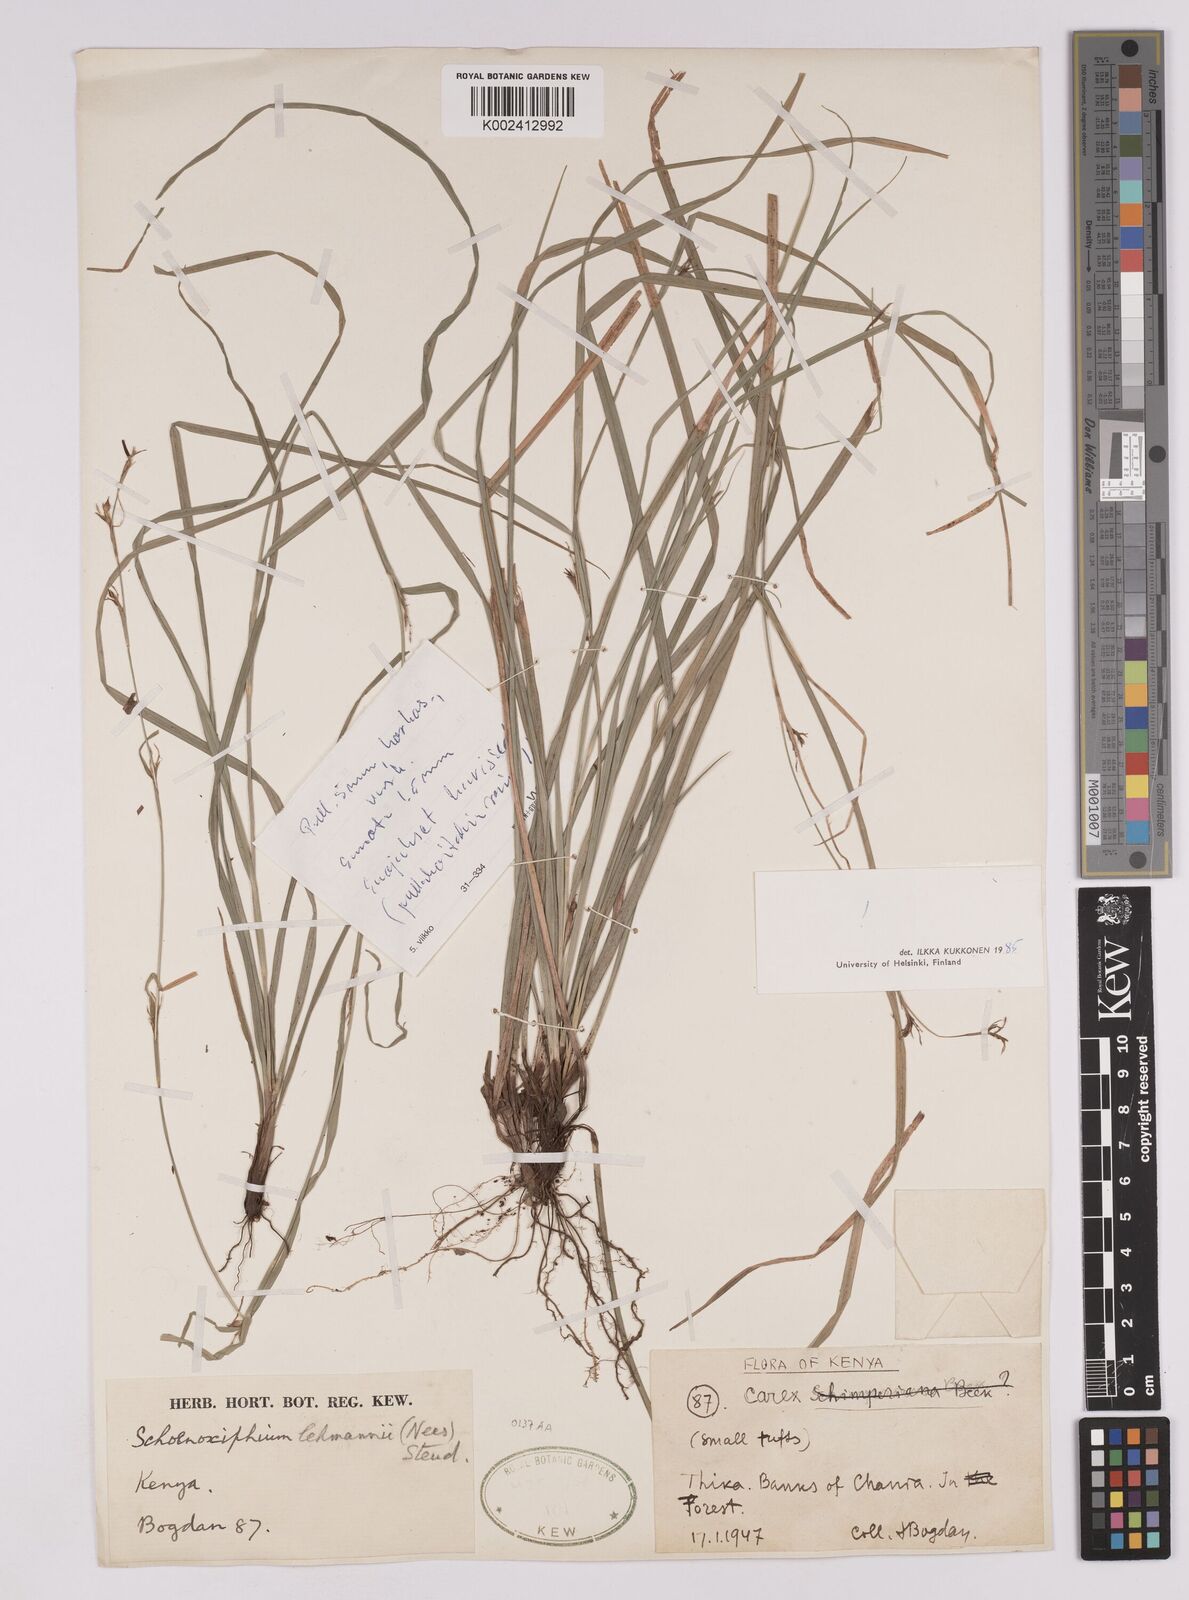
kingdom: Plantae
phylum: Tracheophyta
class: Liliopsida
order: Poales
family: Cyperaceae
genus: Carex
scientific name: Carex uhligii
